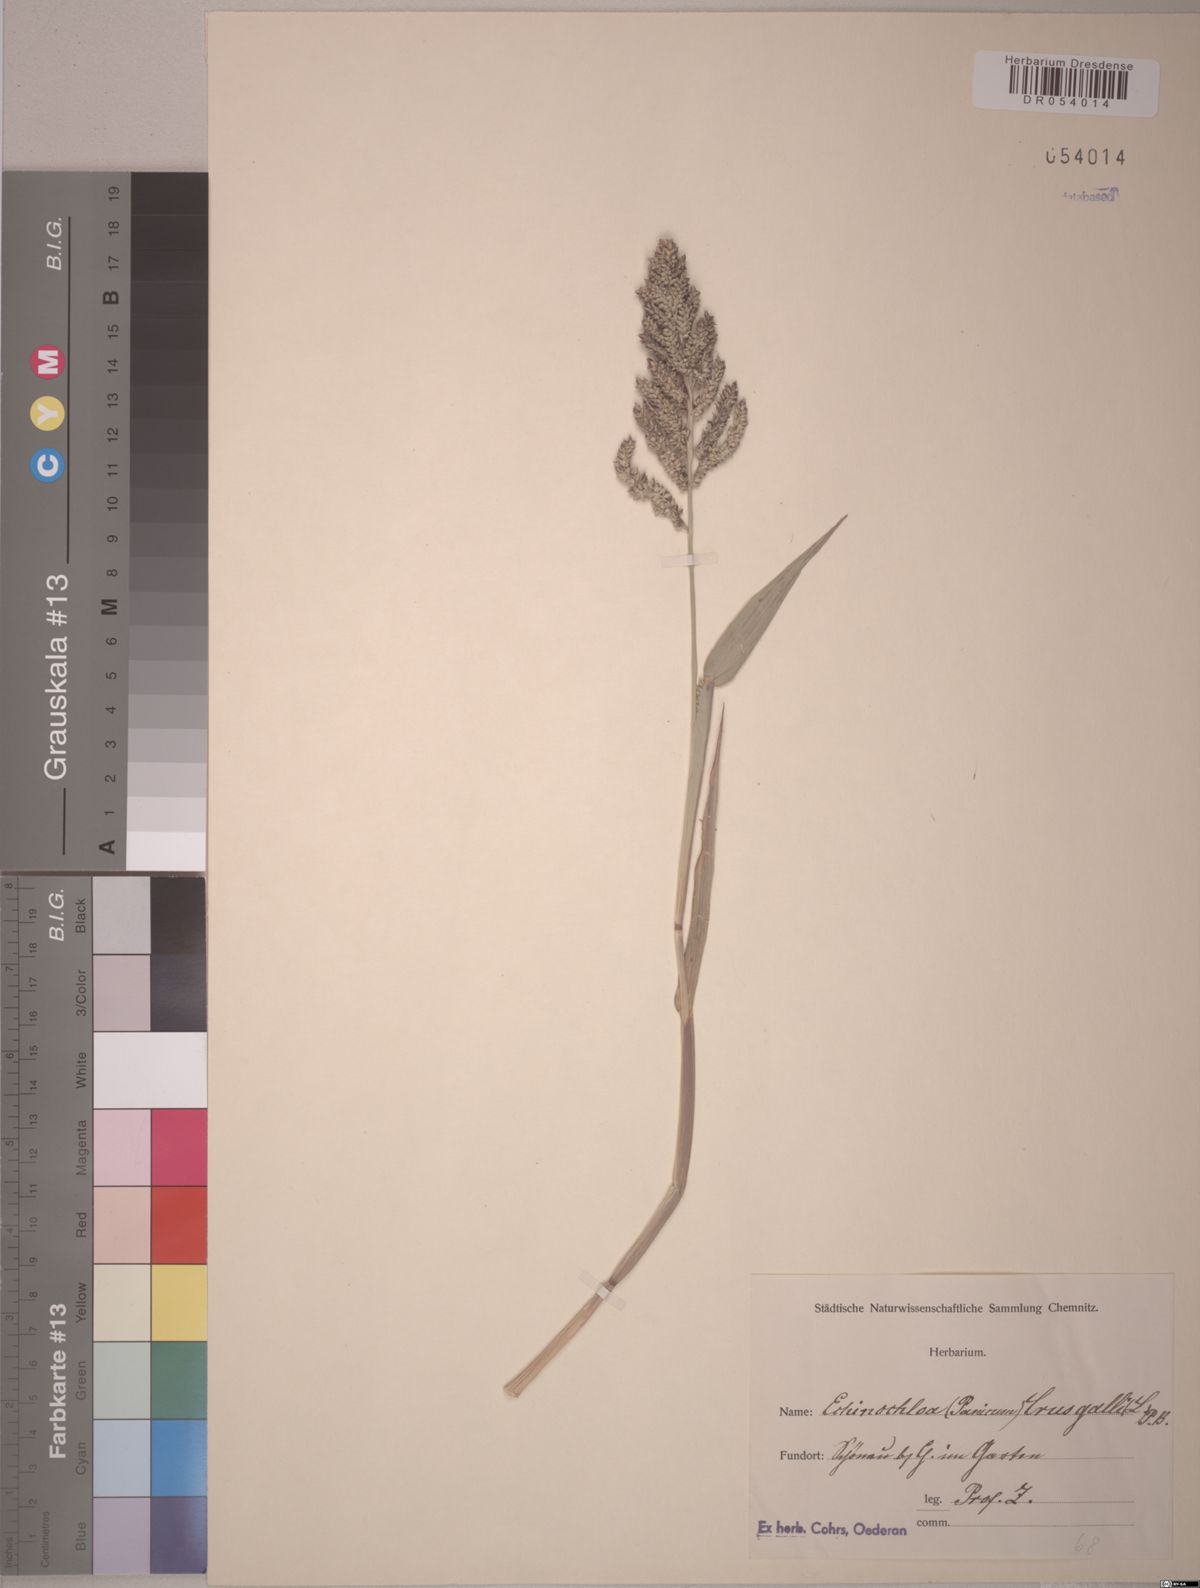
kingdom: Plantae
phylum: Tracheophyta
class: Liliopsida
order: Poales
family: Poaceae
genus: Echinochloa
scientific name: Echinochloa crus-galli
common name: Cockspur
